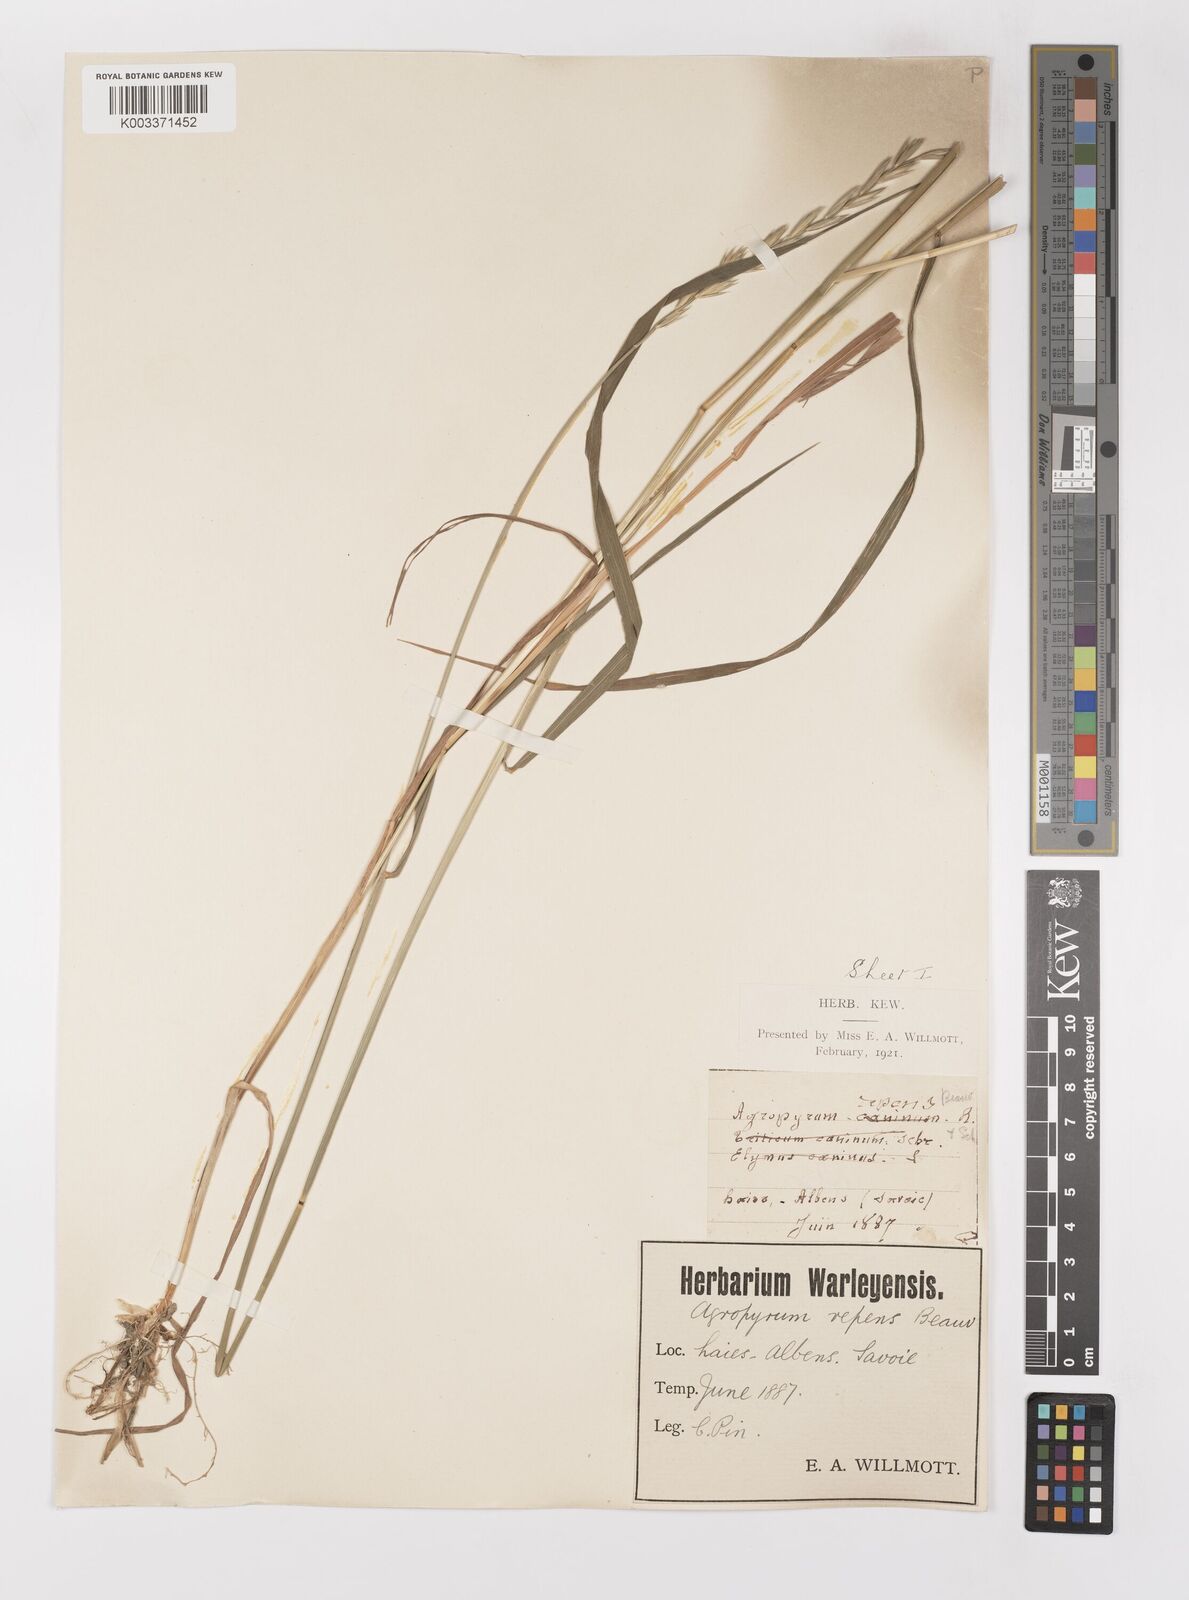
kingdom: Plantae
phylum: Tracheophyta
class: Liliopsida
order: Poales
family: Poaceae
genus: Elymus
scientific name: Elymus repens
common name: Quackgrass
